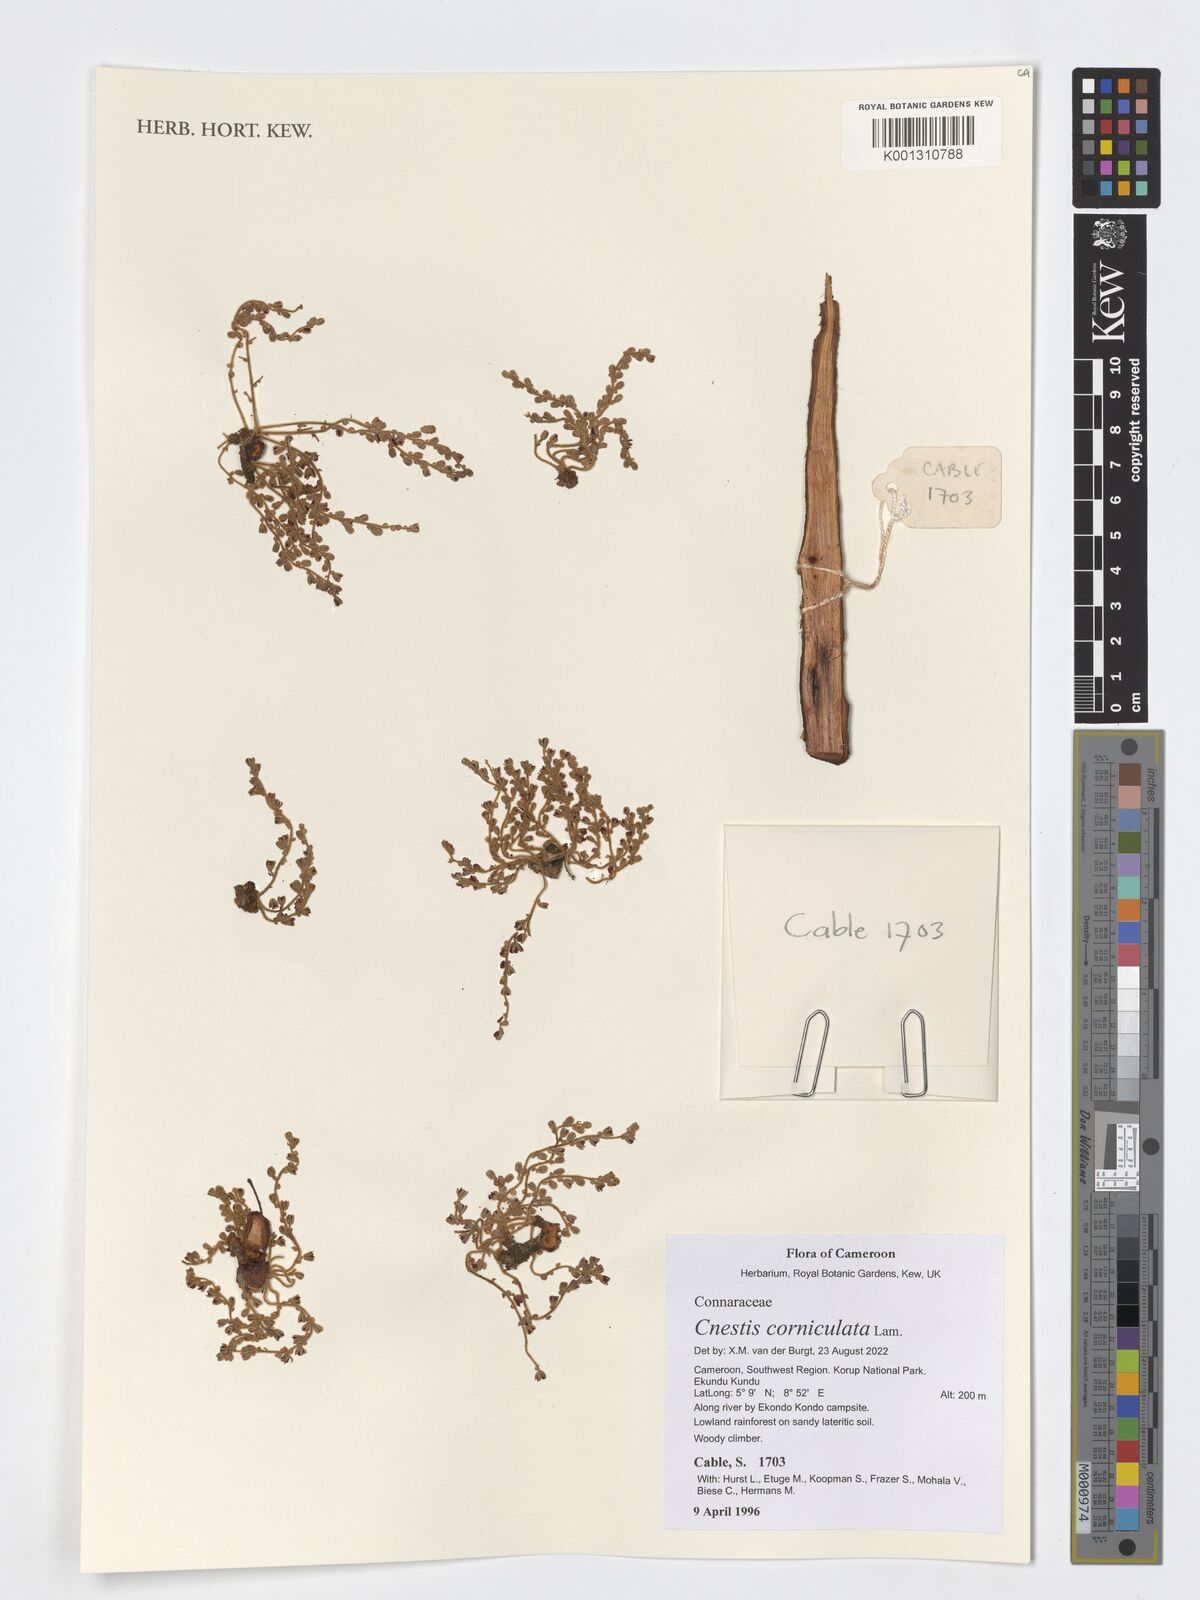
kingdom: Plantae
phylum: Tracheophyta
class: Magnoliopsida
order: Oxalidales
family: Connaraceae
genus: Cnestis
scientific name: Cnestis corniculata
